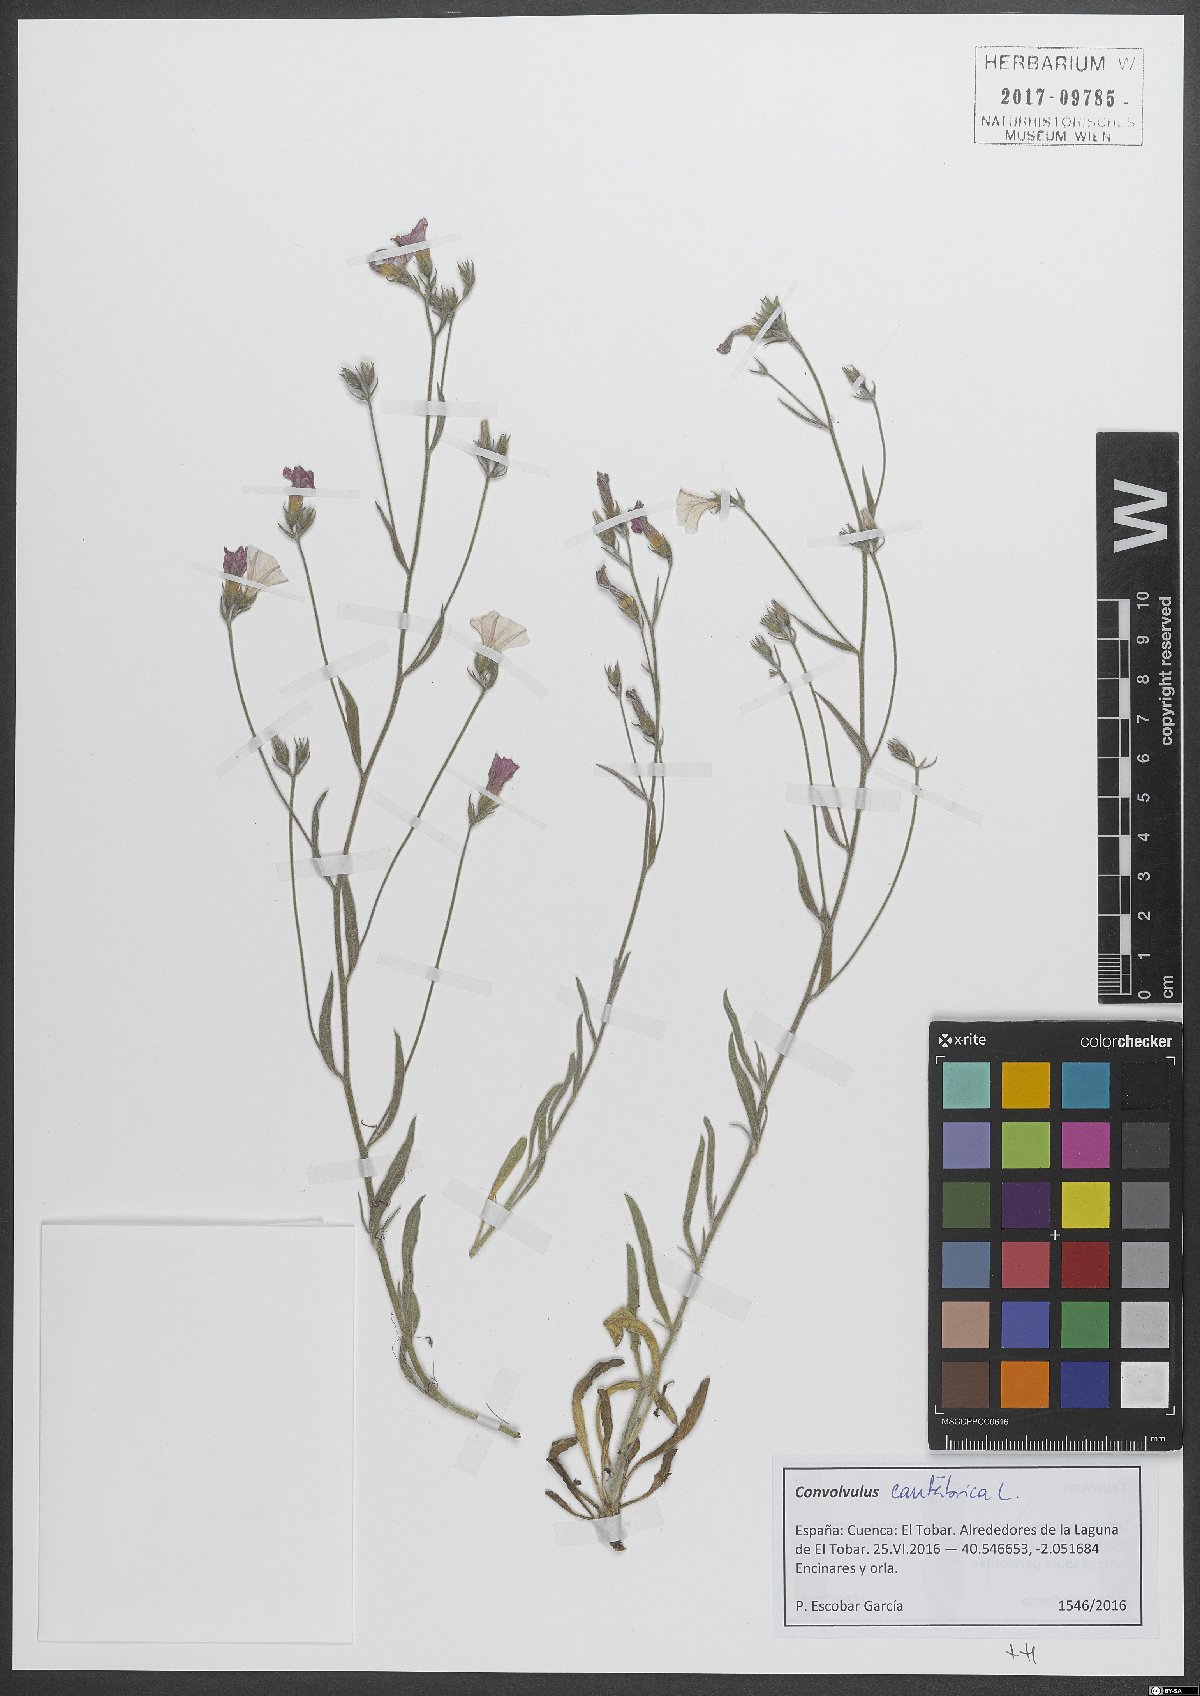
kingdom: Plantae
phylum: Tracheophyta
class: Magnoliopsida
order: Solanales
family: Convolvulaceae
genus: Convolvulus
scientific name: Convolvulus cantabrica
